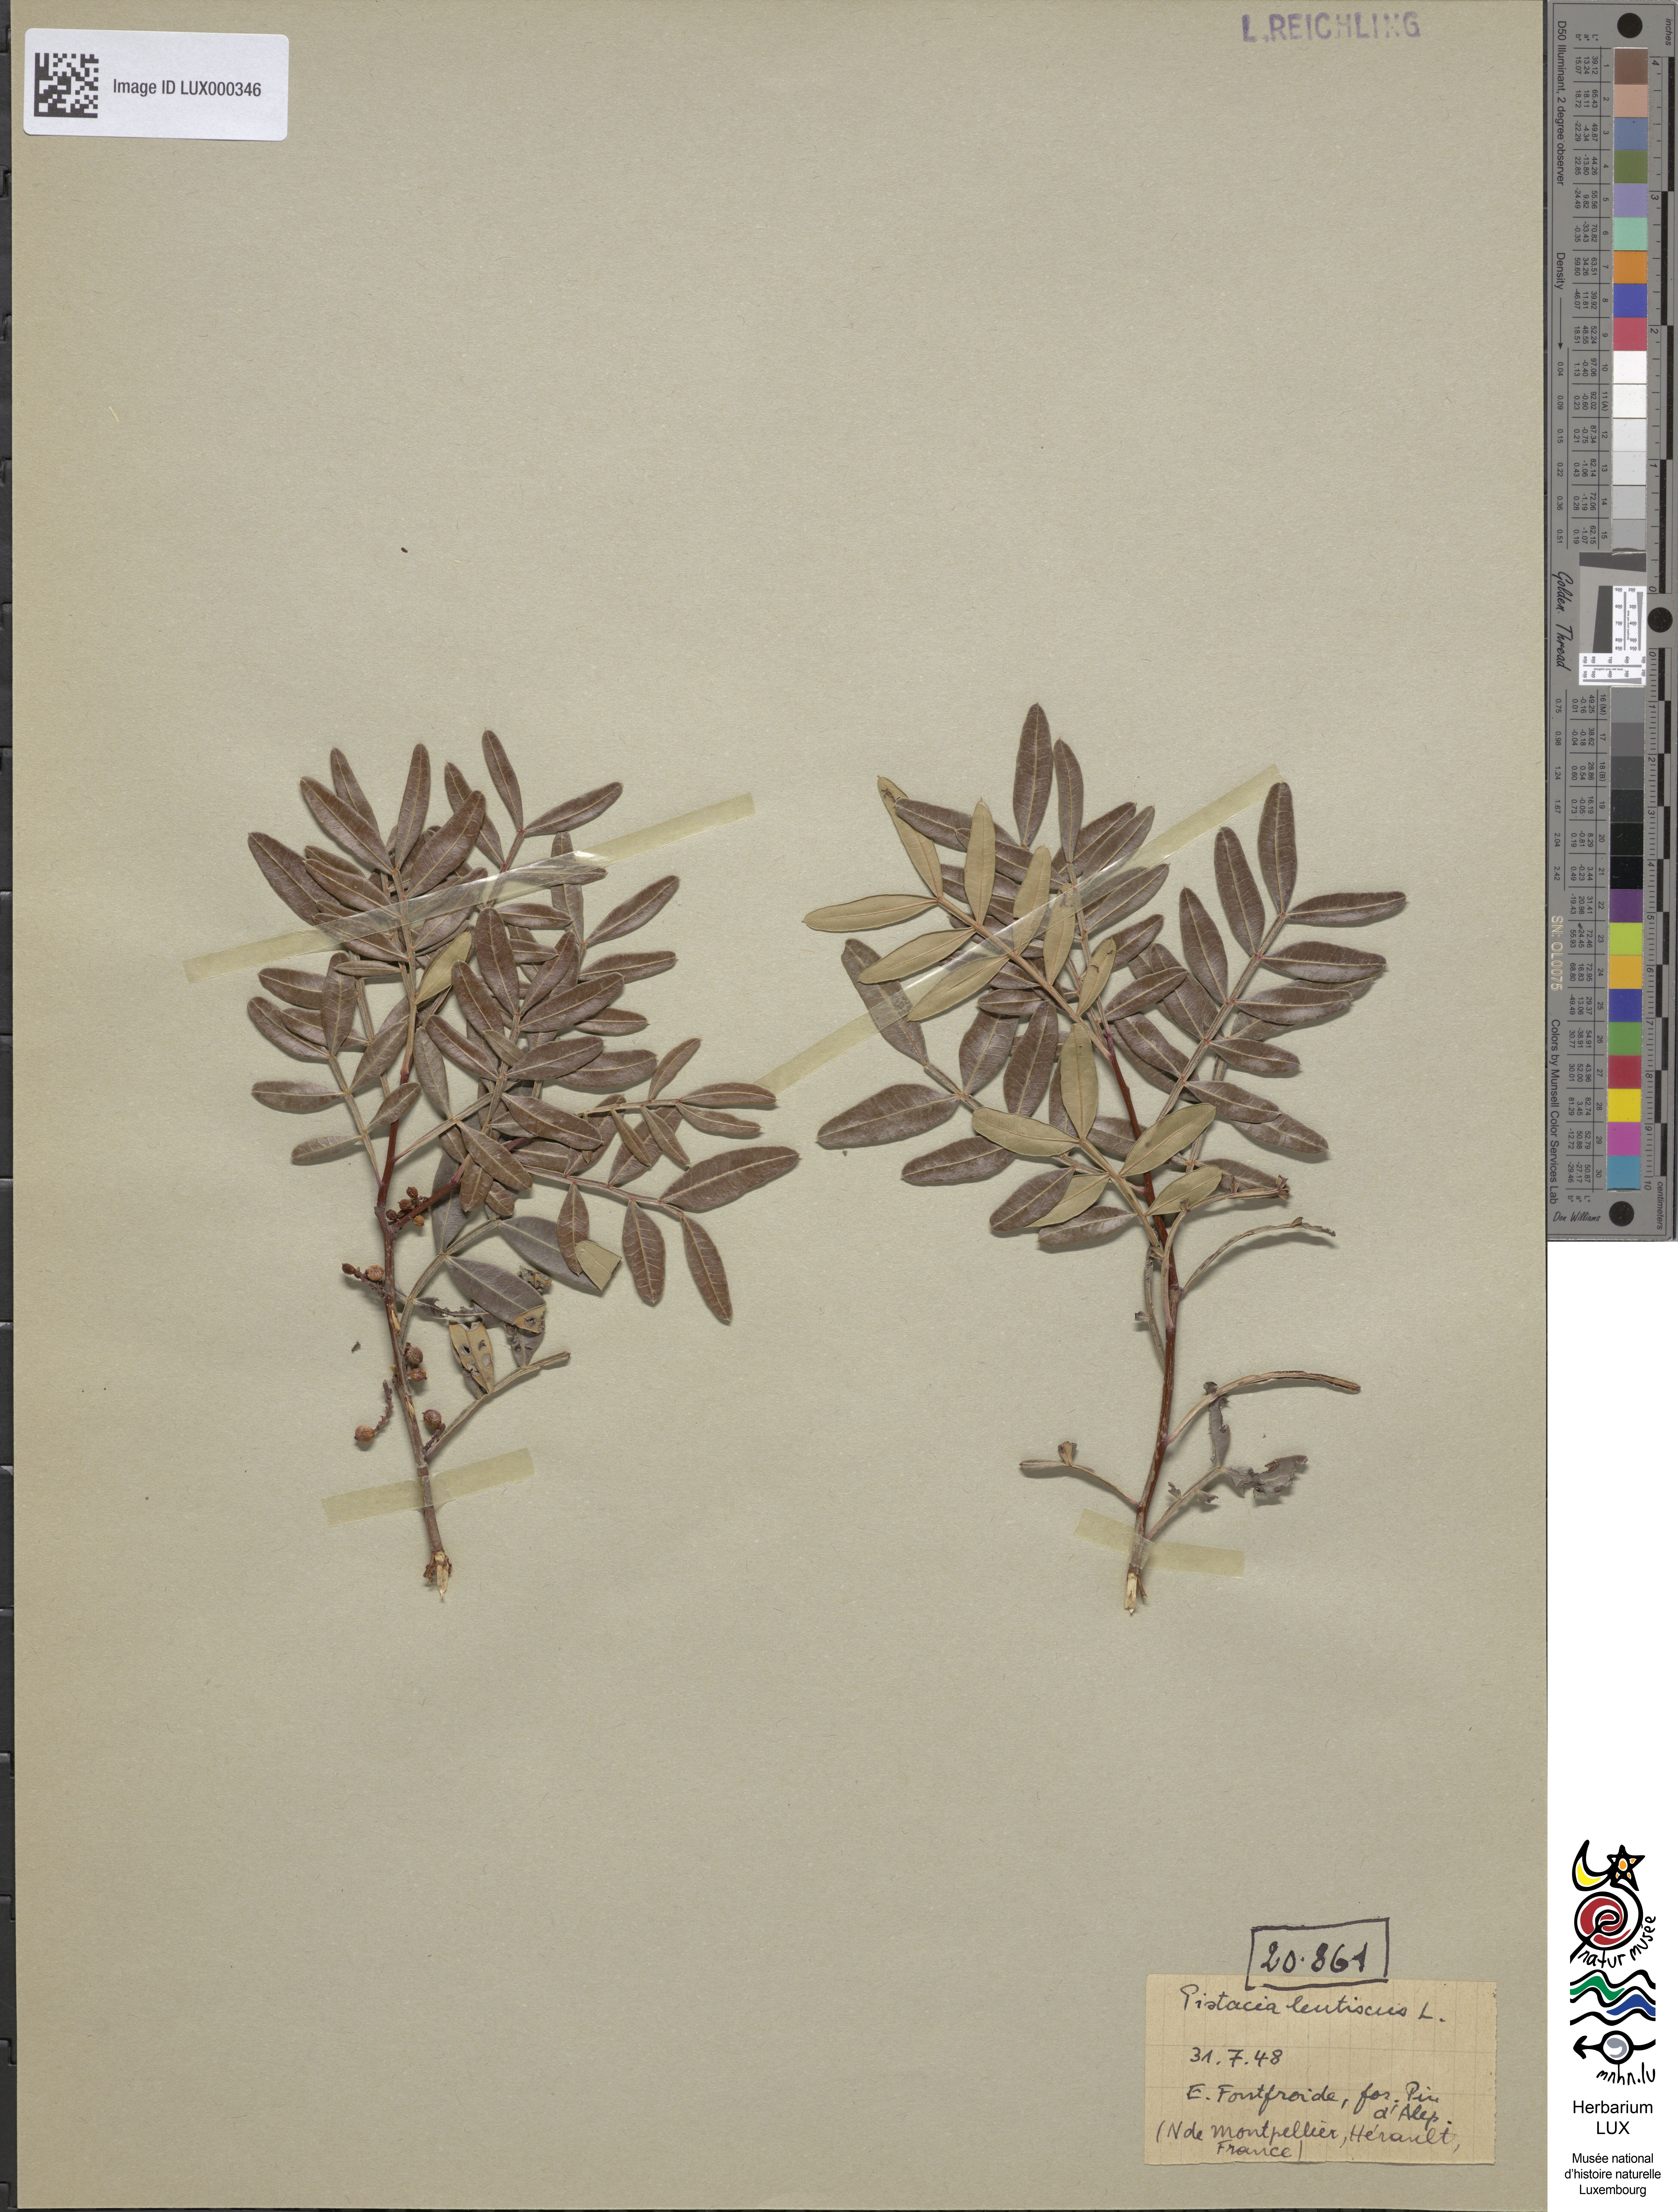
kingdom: Plantae
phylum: Tracheophyta
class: Magnoliopsida
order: Sapindales
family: Anacardiaceae
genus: Pistacia
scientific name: Pistacia lentiscus
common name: Lentisk
